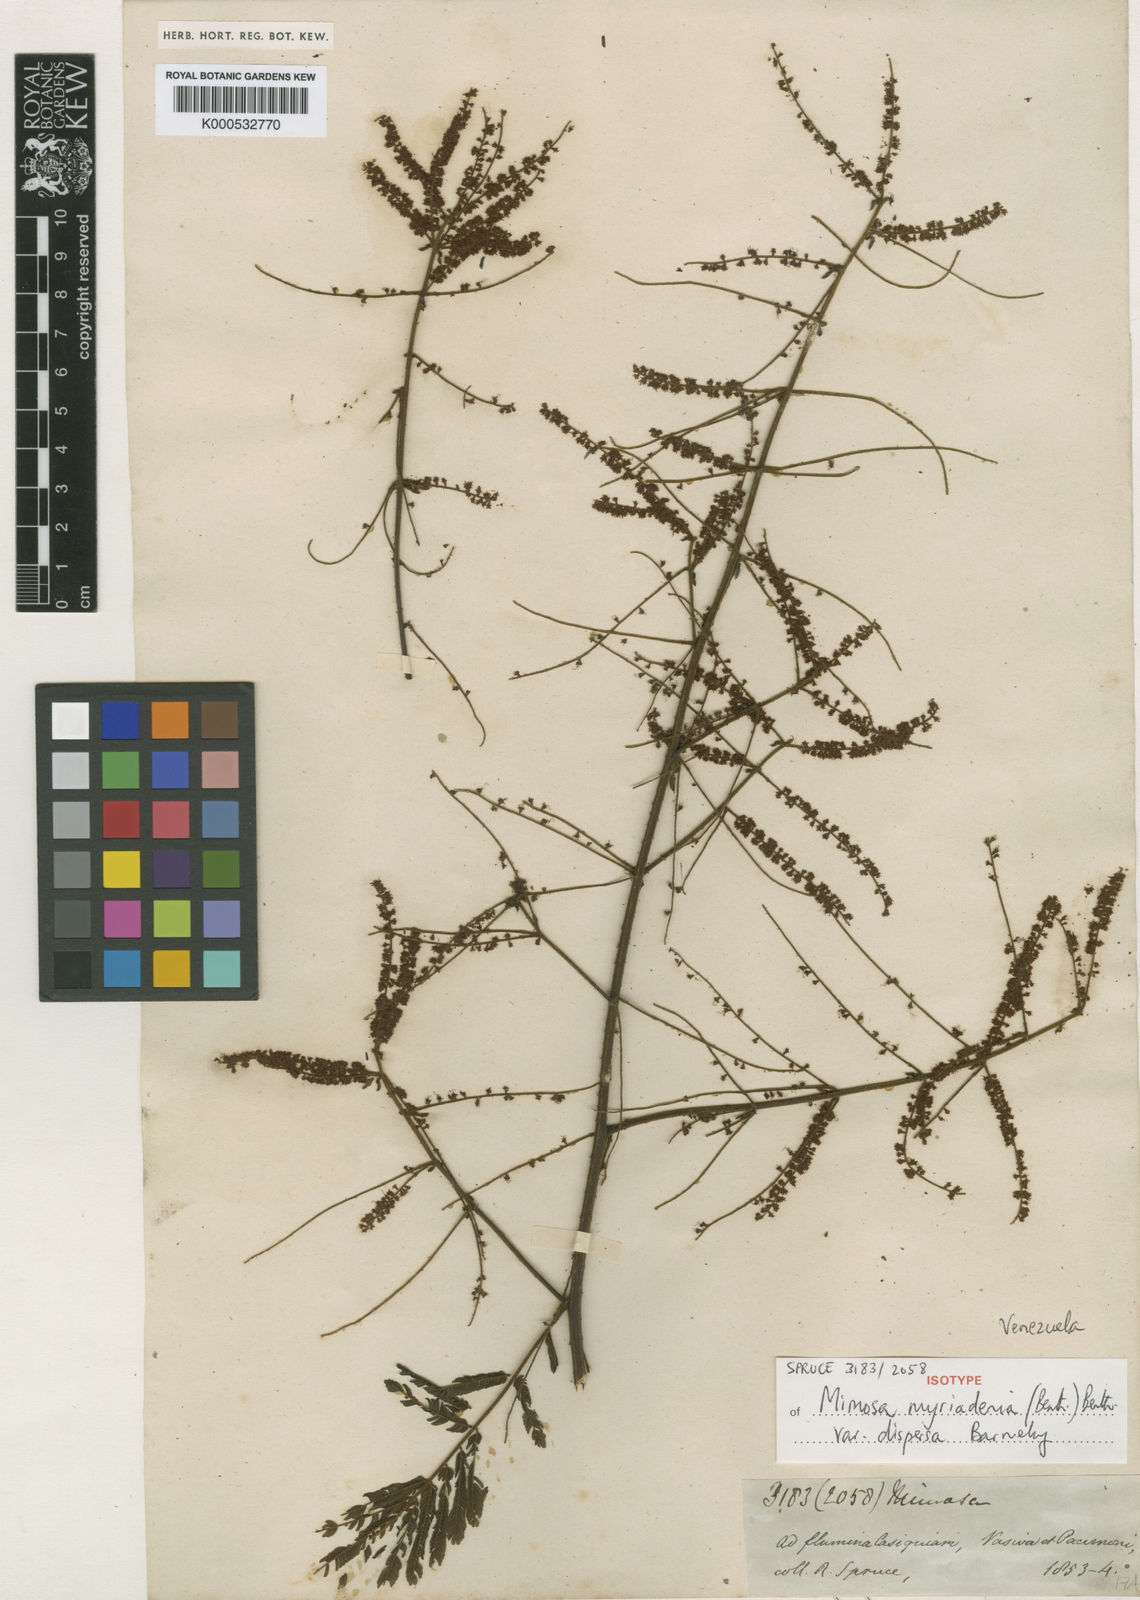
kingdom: Plantae
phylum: Tracheophyta
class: Magnoliopsida
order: Fabales
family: Fabaceae
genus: Mimosa
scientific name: Mimosa myriadenia
